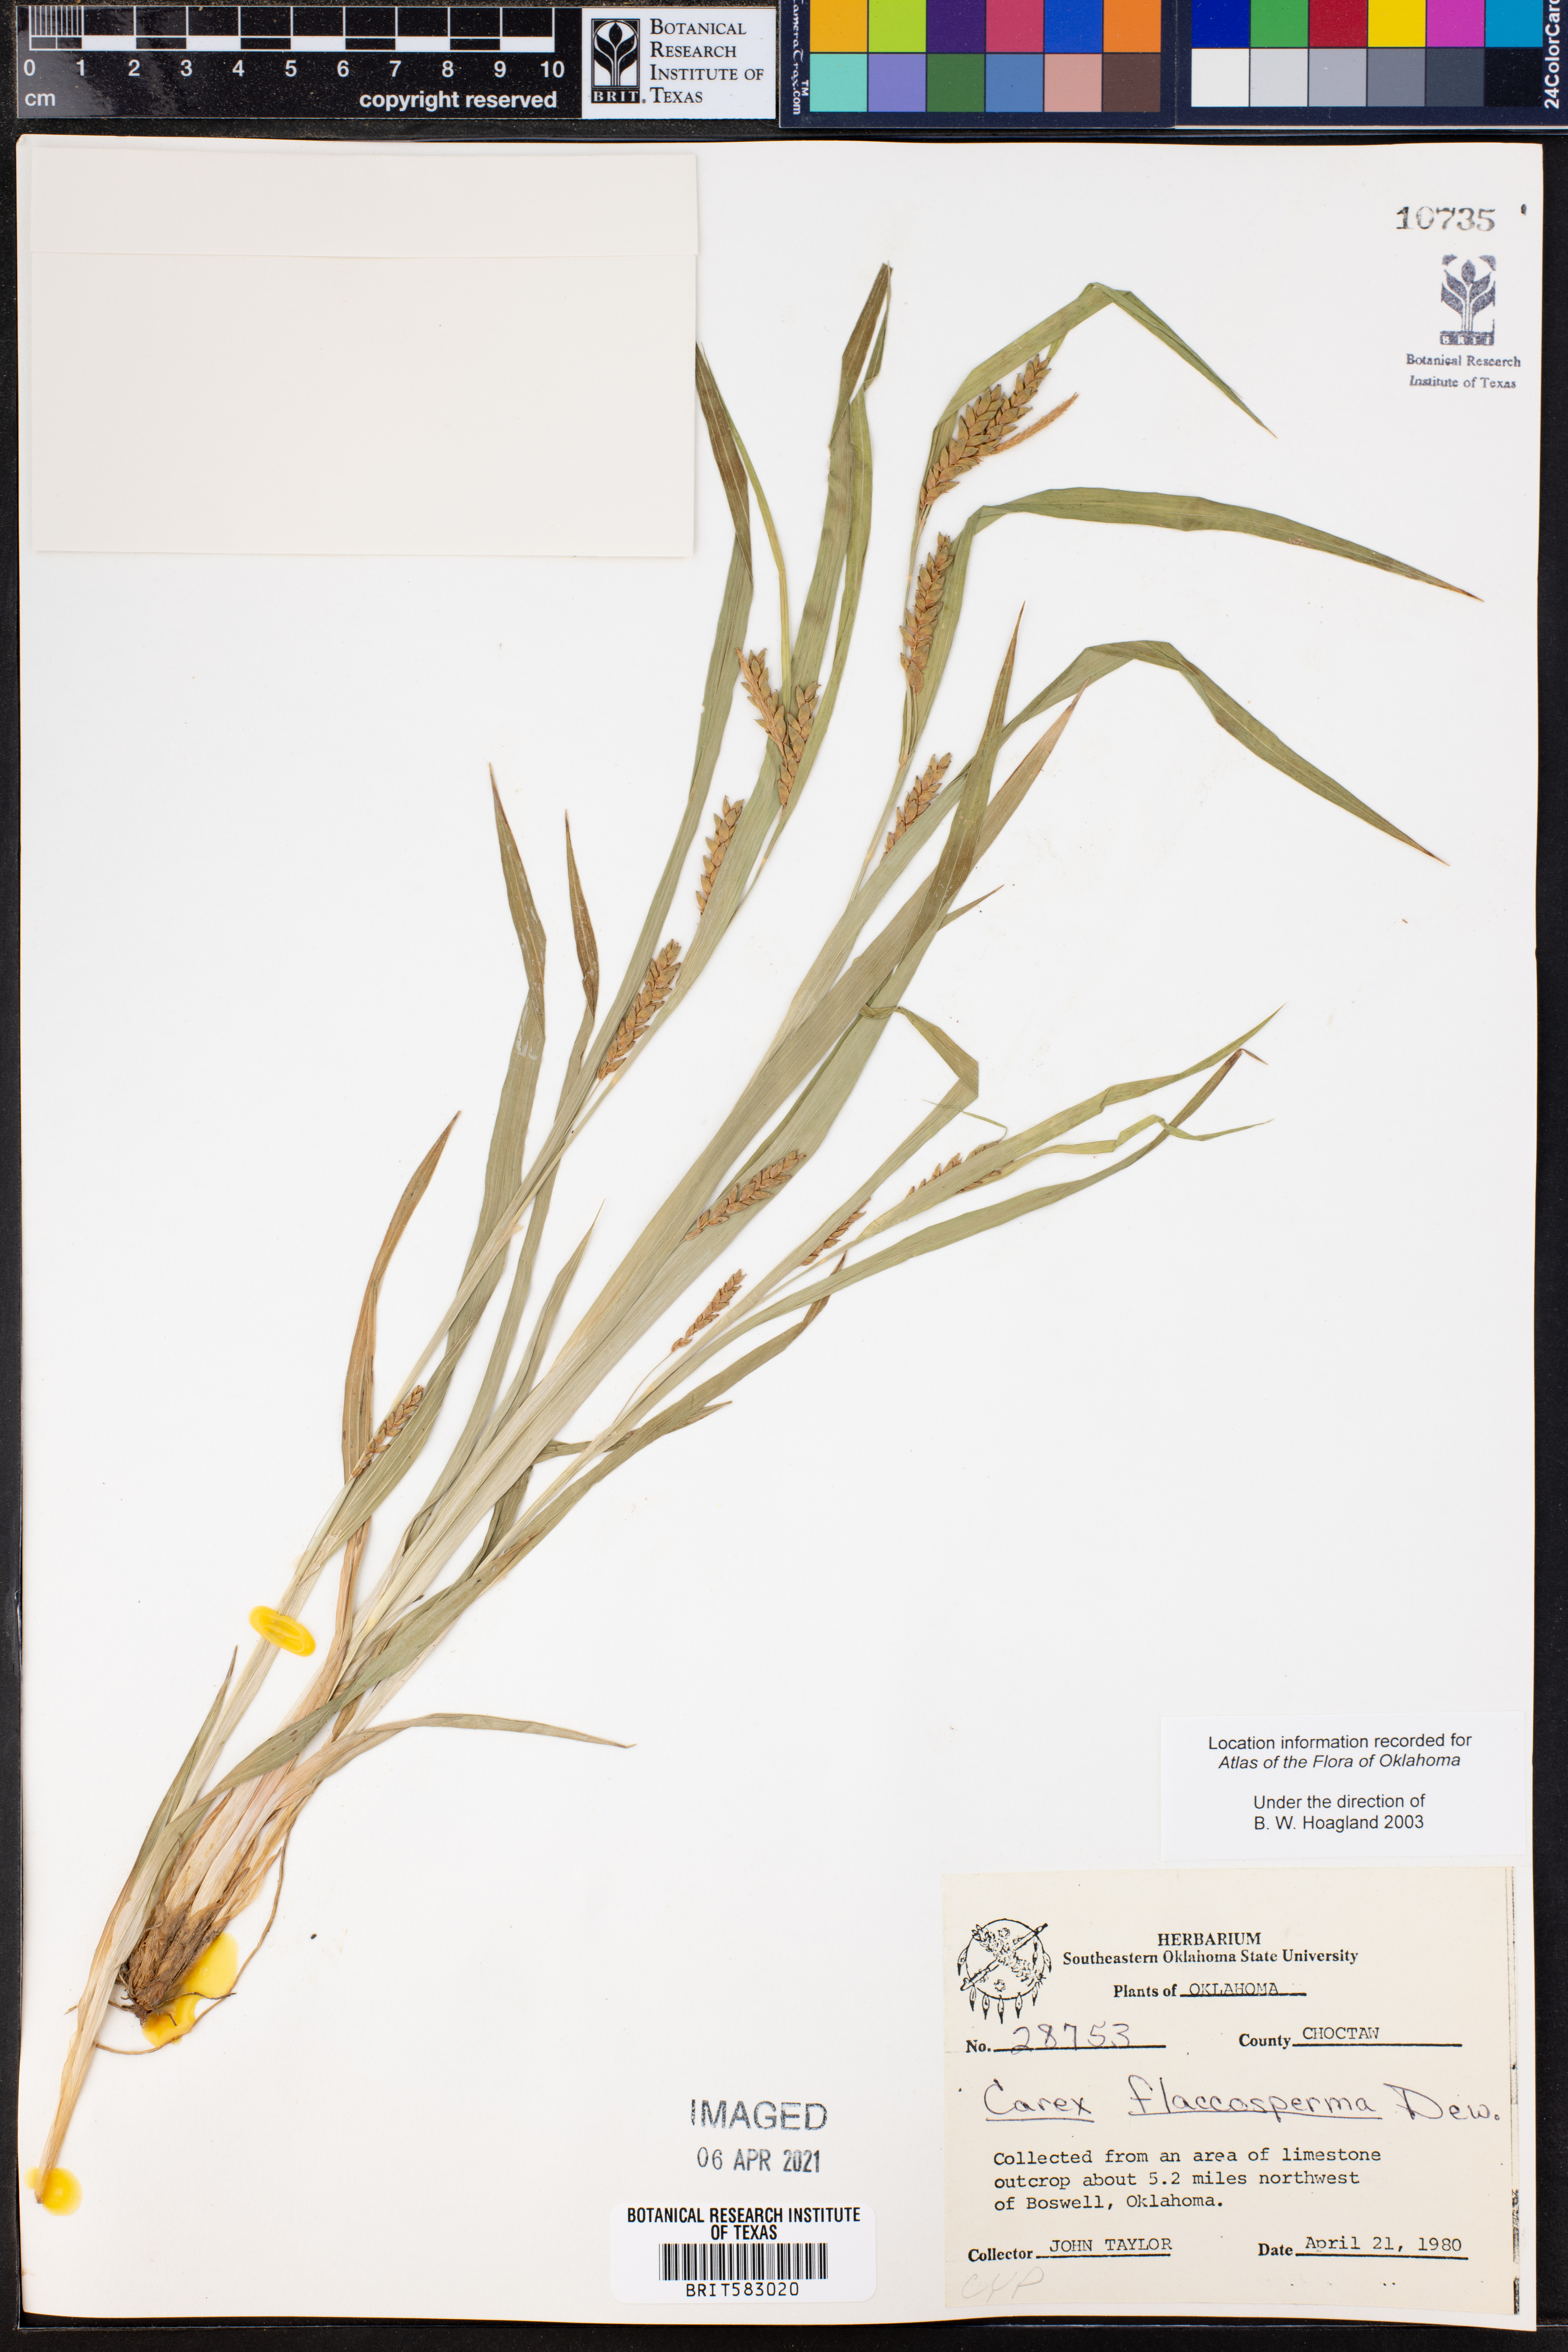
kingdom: Plantae
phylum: Tracheophyta
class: Liliopsida
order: Poales
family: Cyperaceae
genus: Carex
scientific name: Carex flaccosperma
